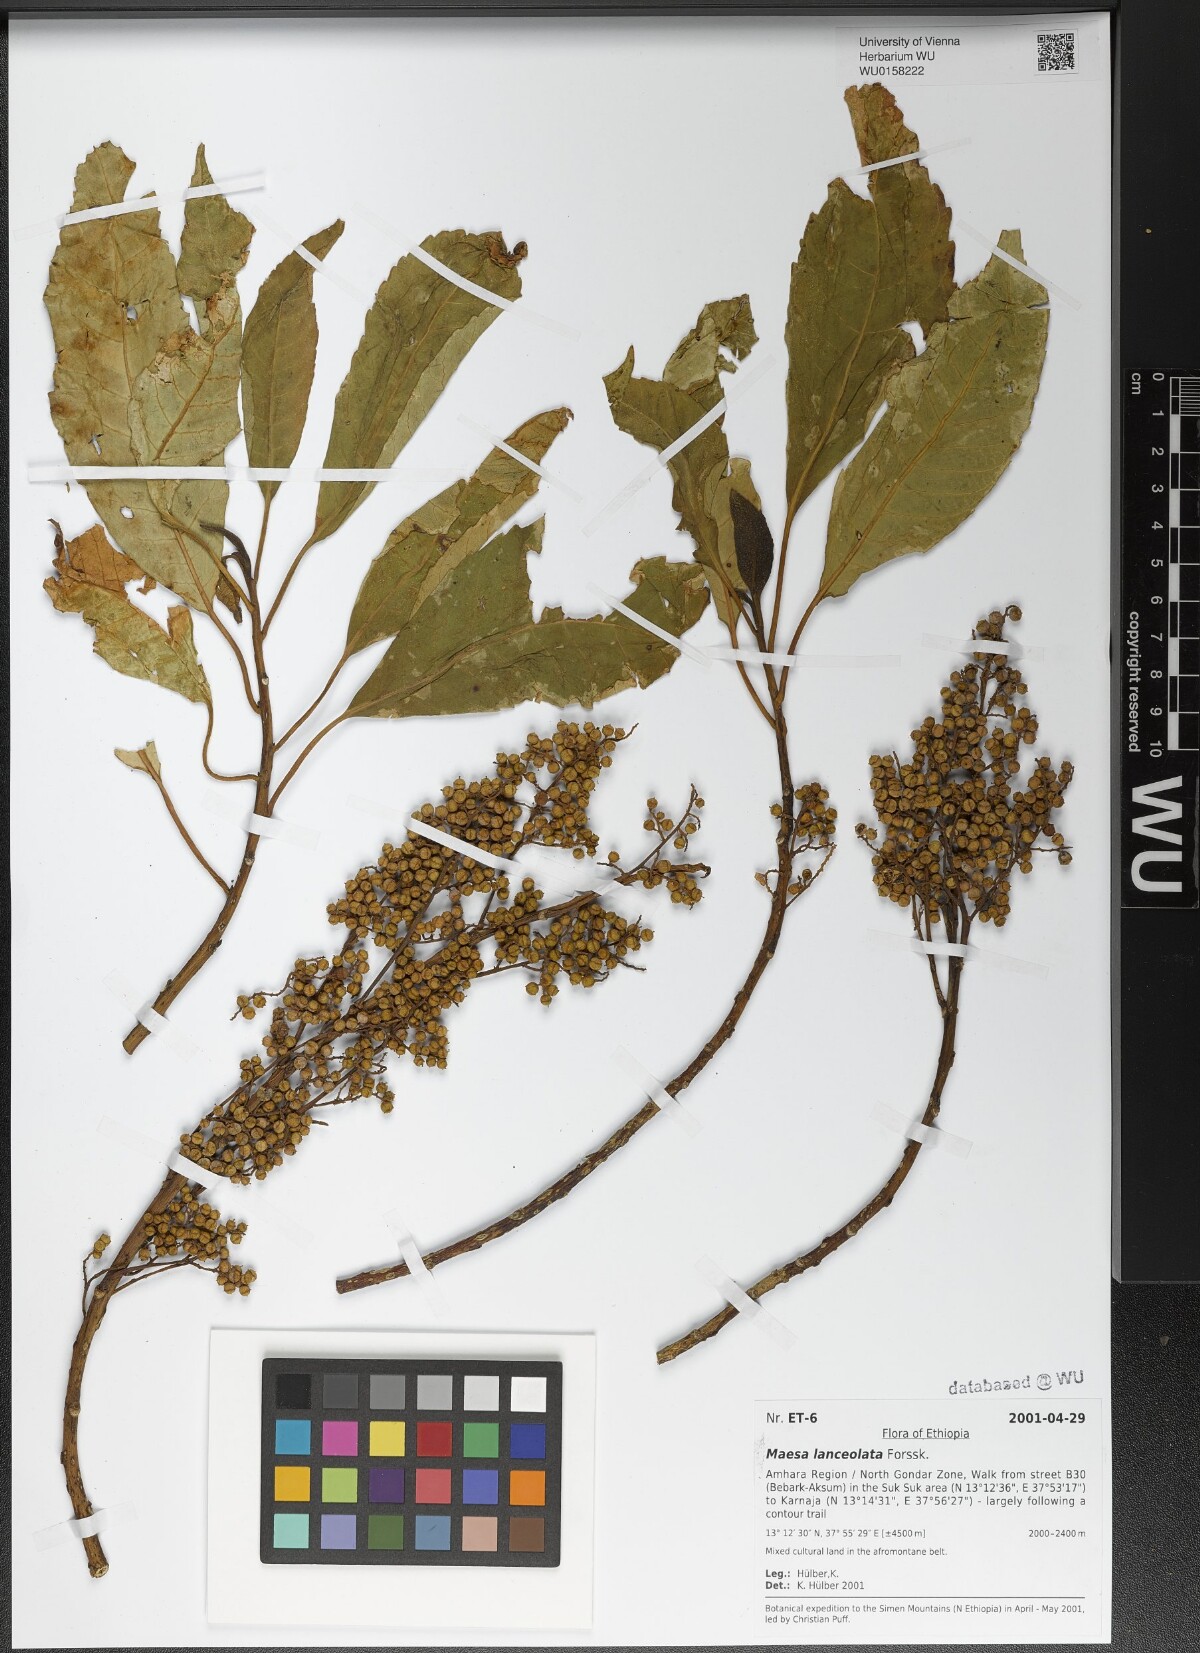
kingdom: Plantae
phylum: Tracheophyta
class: Magnoliopsida
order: Ericales
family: Primulaceae
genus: Maesa
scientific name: Maesa lanceolata
